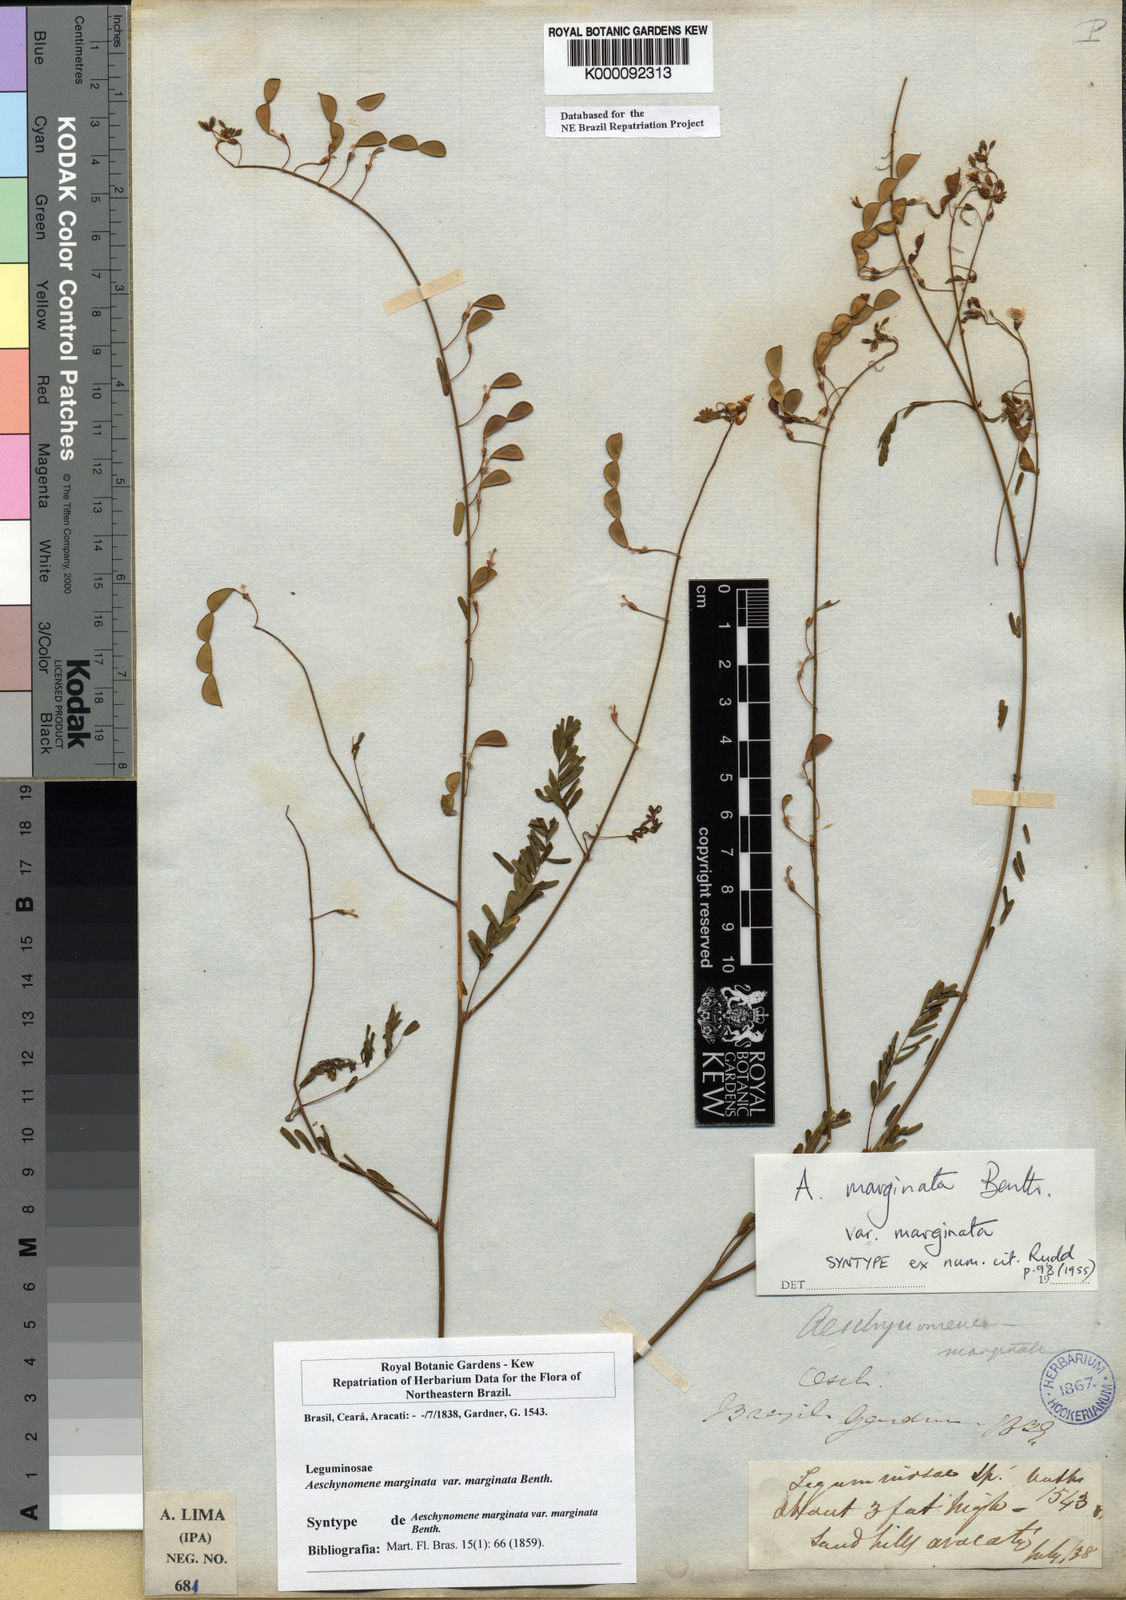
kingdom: Plantae
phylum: Tracheophyta
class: Magnoliopsida
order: Fabales
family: Fabaceae
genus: Ctenodon
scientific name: Ctenodon marginatus
